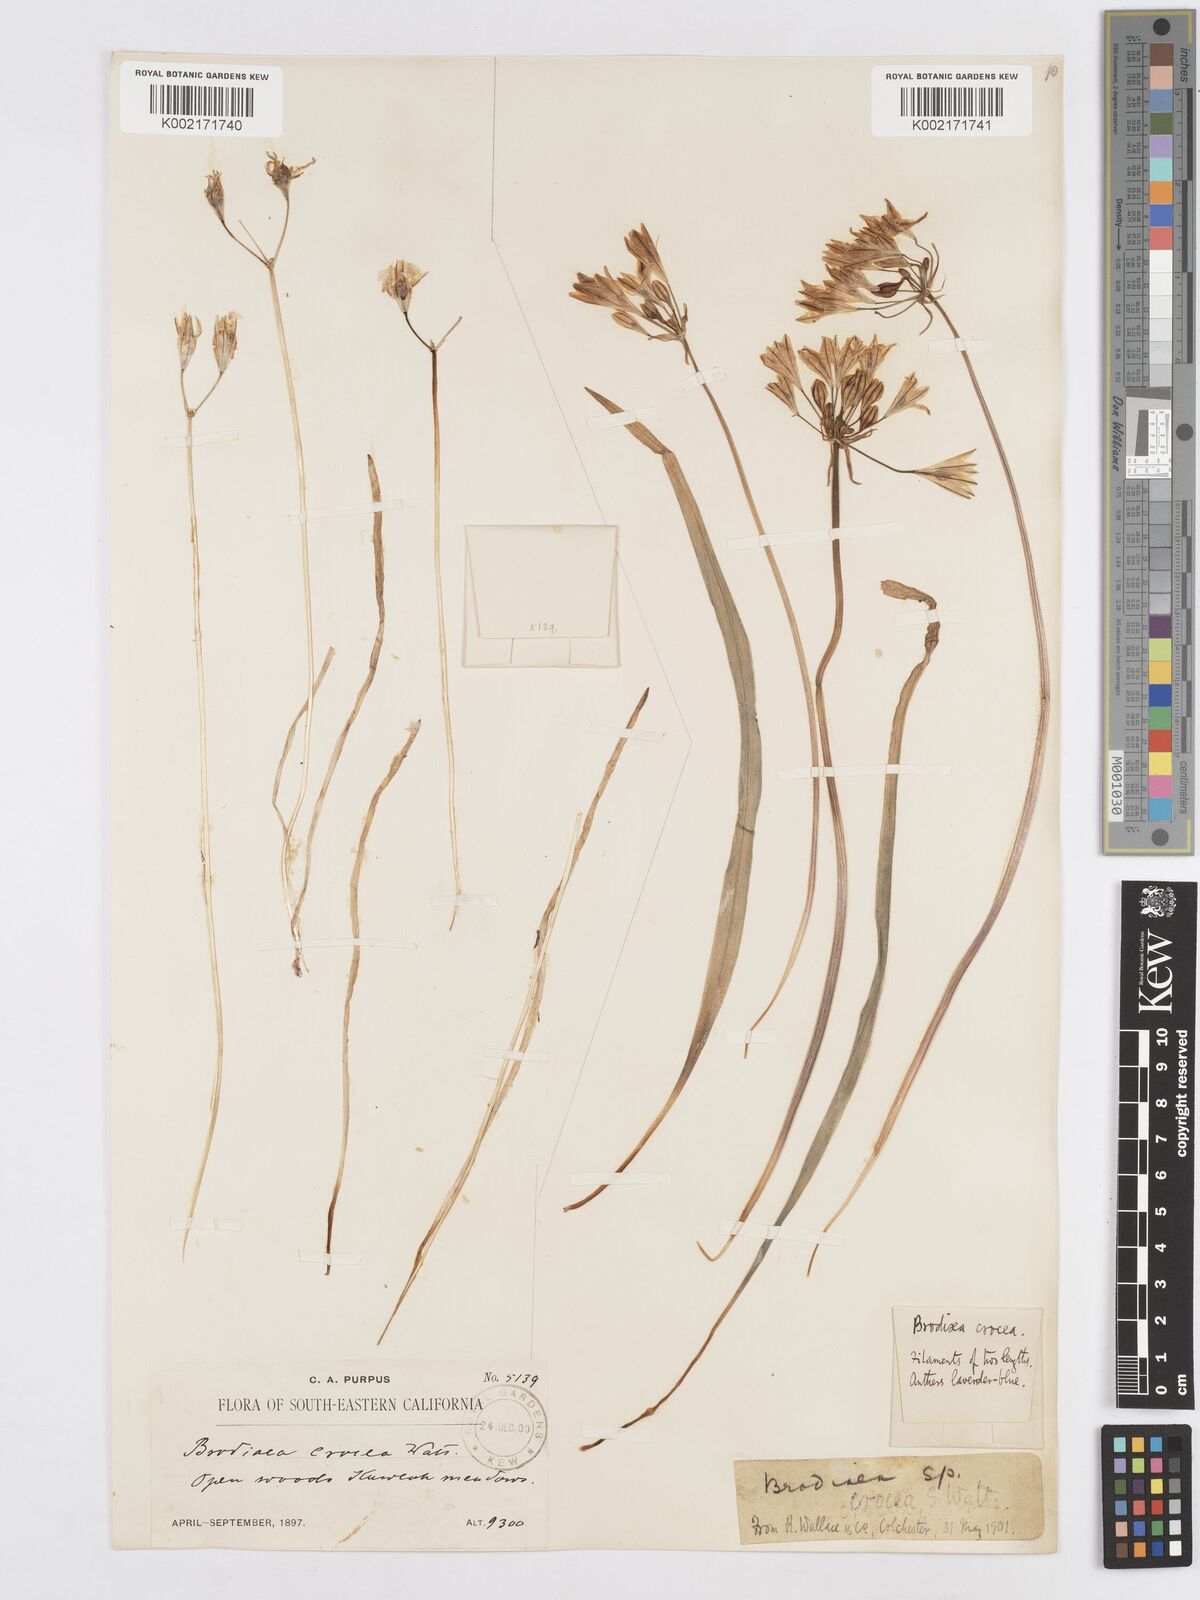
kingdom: Plantae
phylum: Tracheophyta
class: Liliopsida
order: Asparagales
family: Asparagaceae
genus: Triteleia
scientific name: Triteleia crocea
